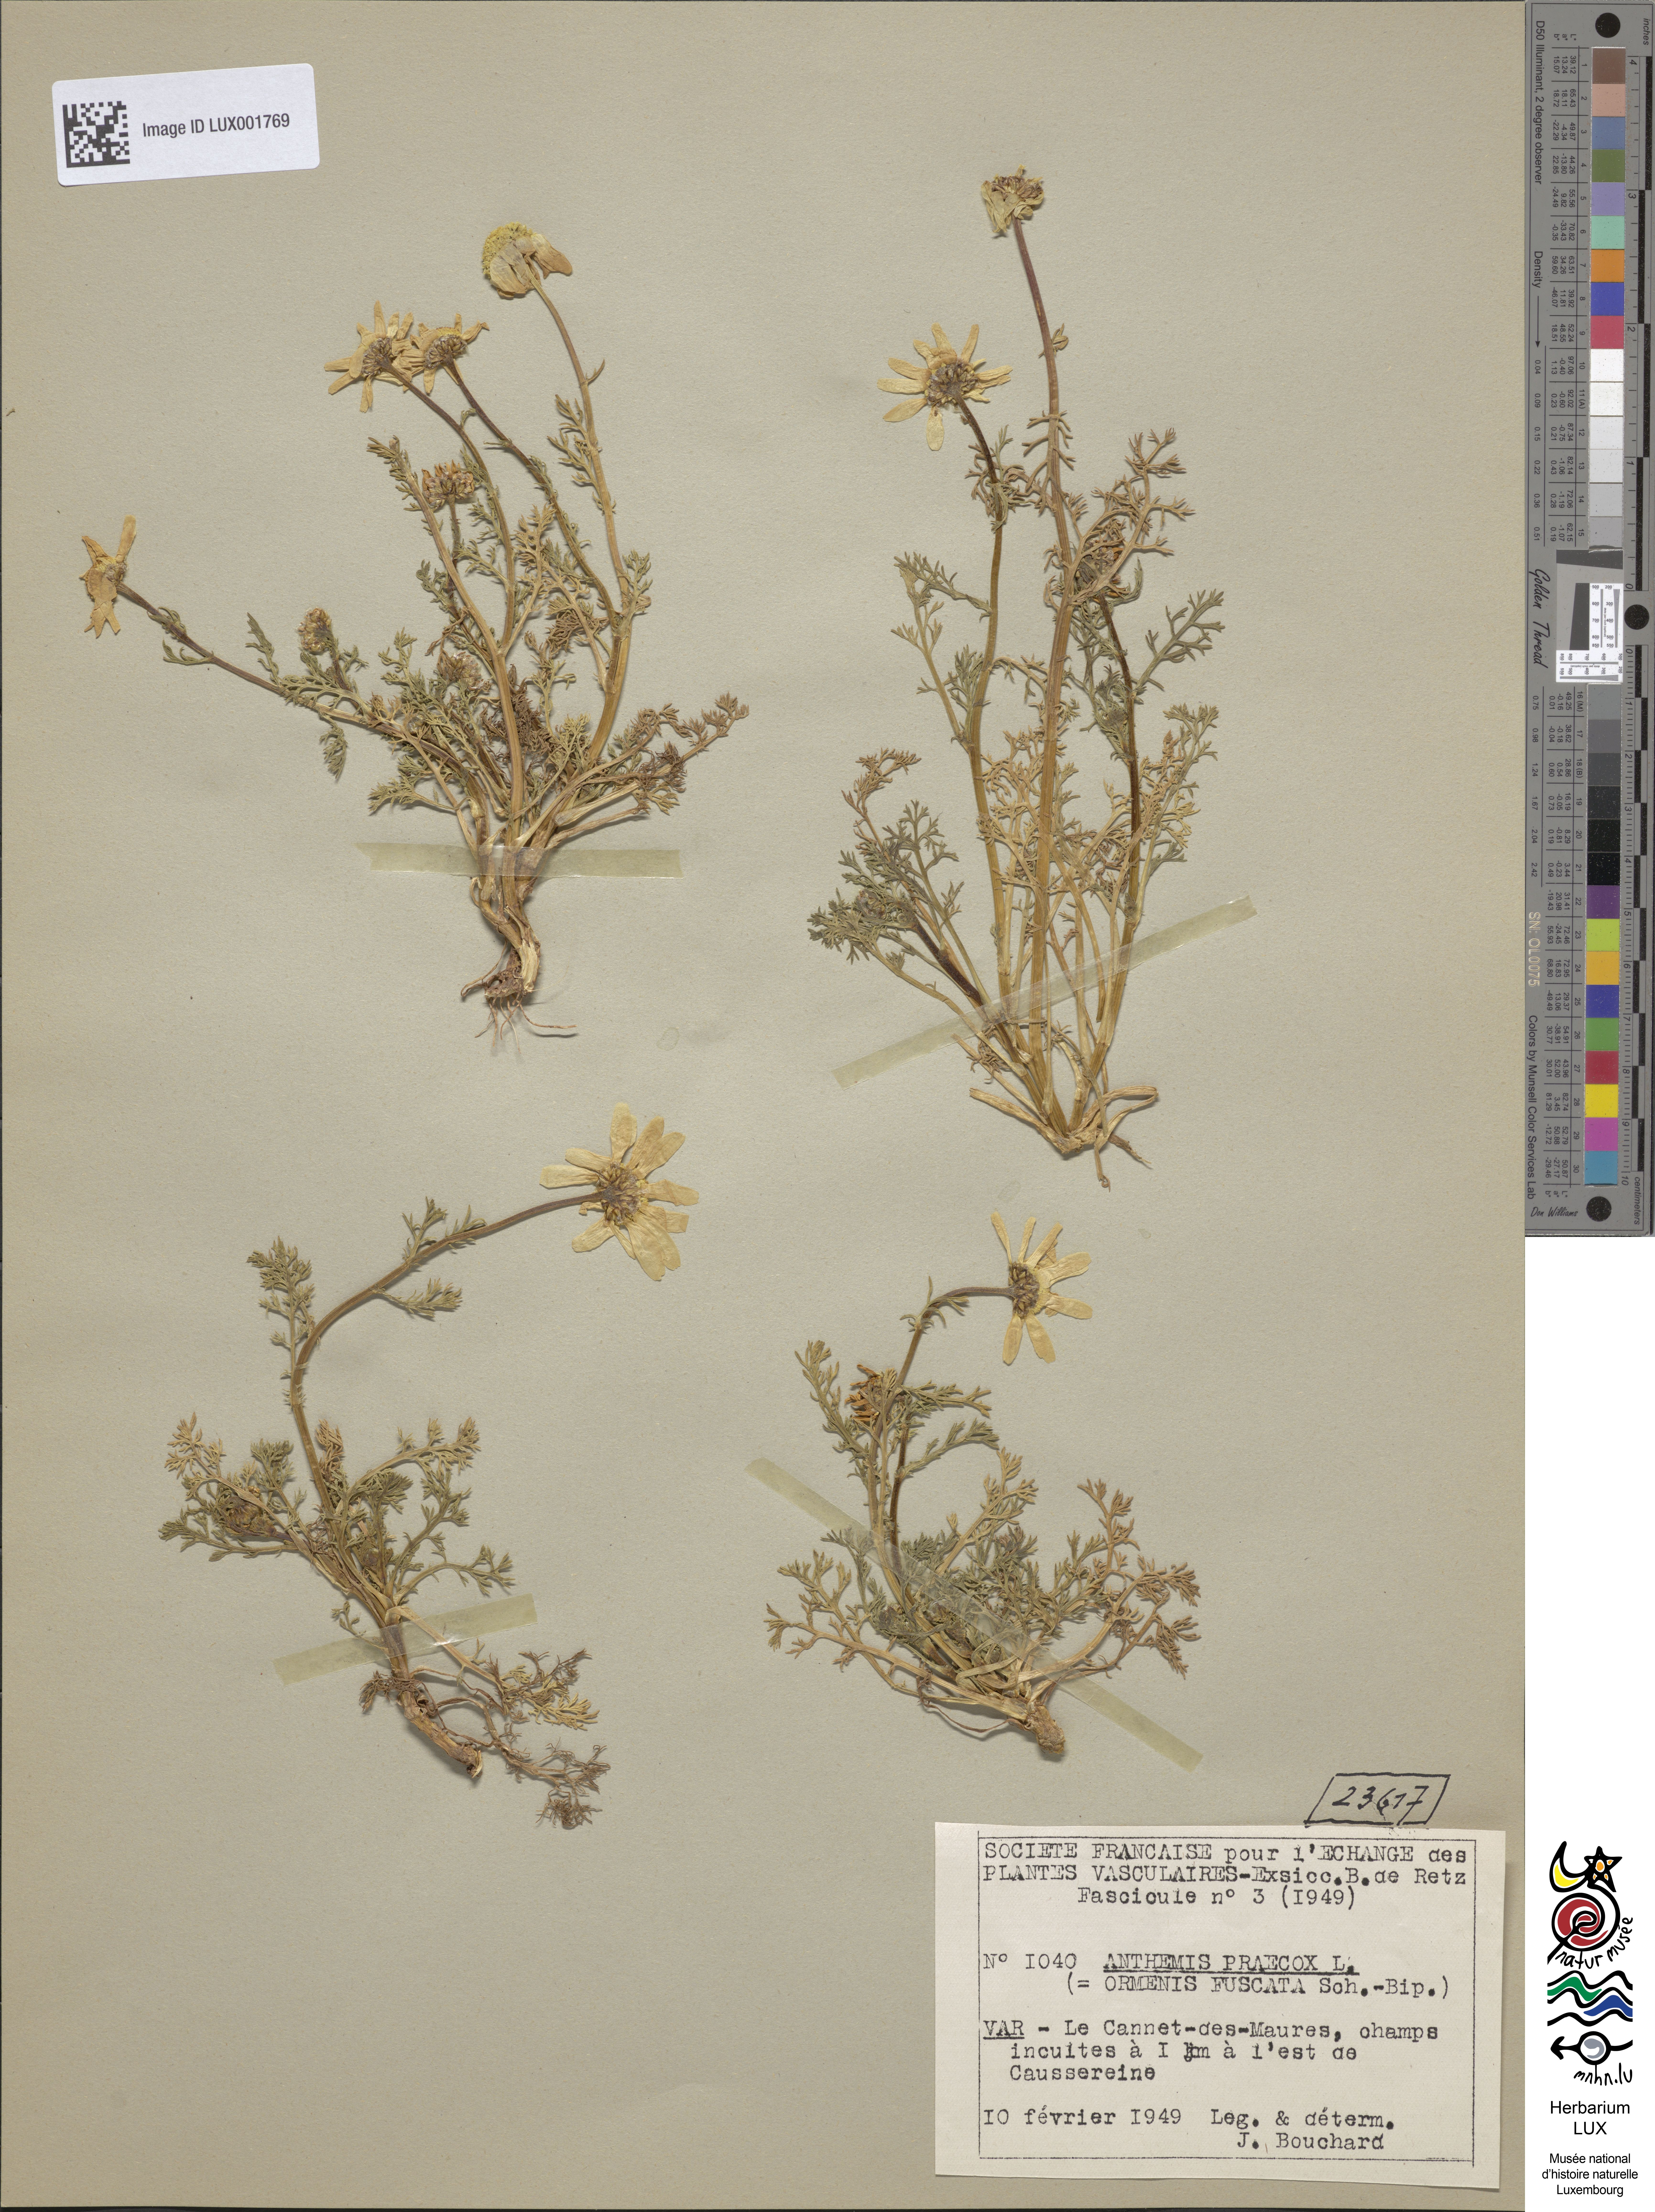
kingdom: Plantae
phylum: Tracheophyta
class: Magnoliopsida
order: Asterales
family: Asteraceae
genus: Chamaemelum
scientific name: Chamaemelum fuscatum
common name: Chamomile
